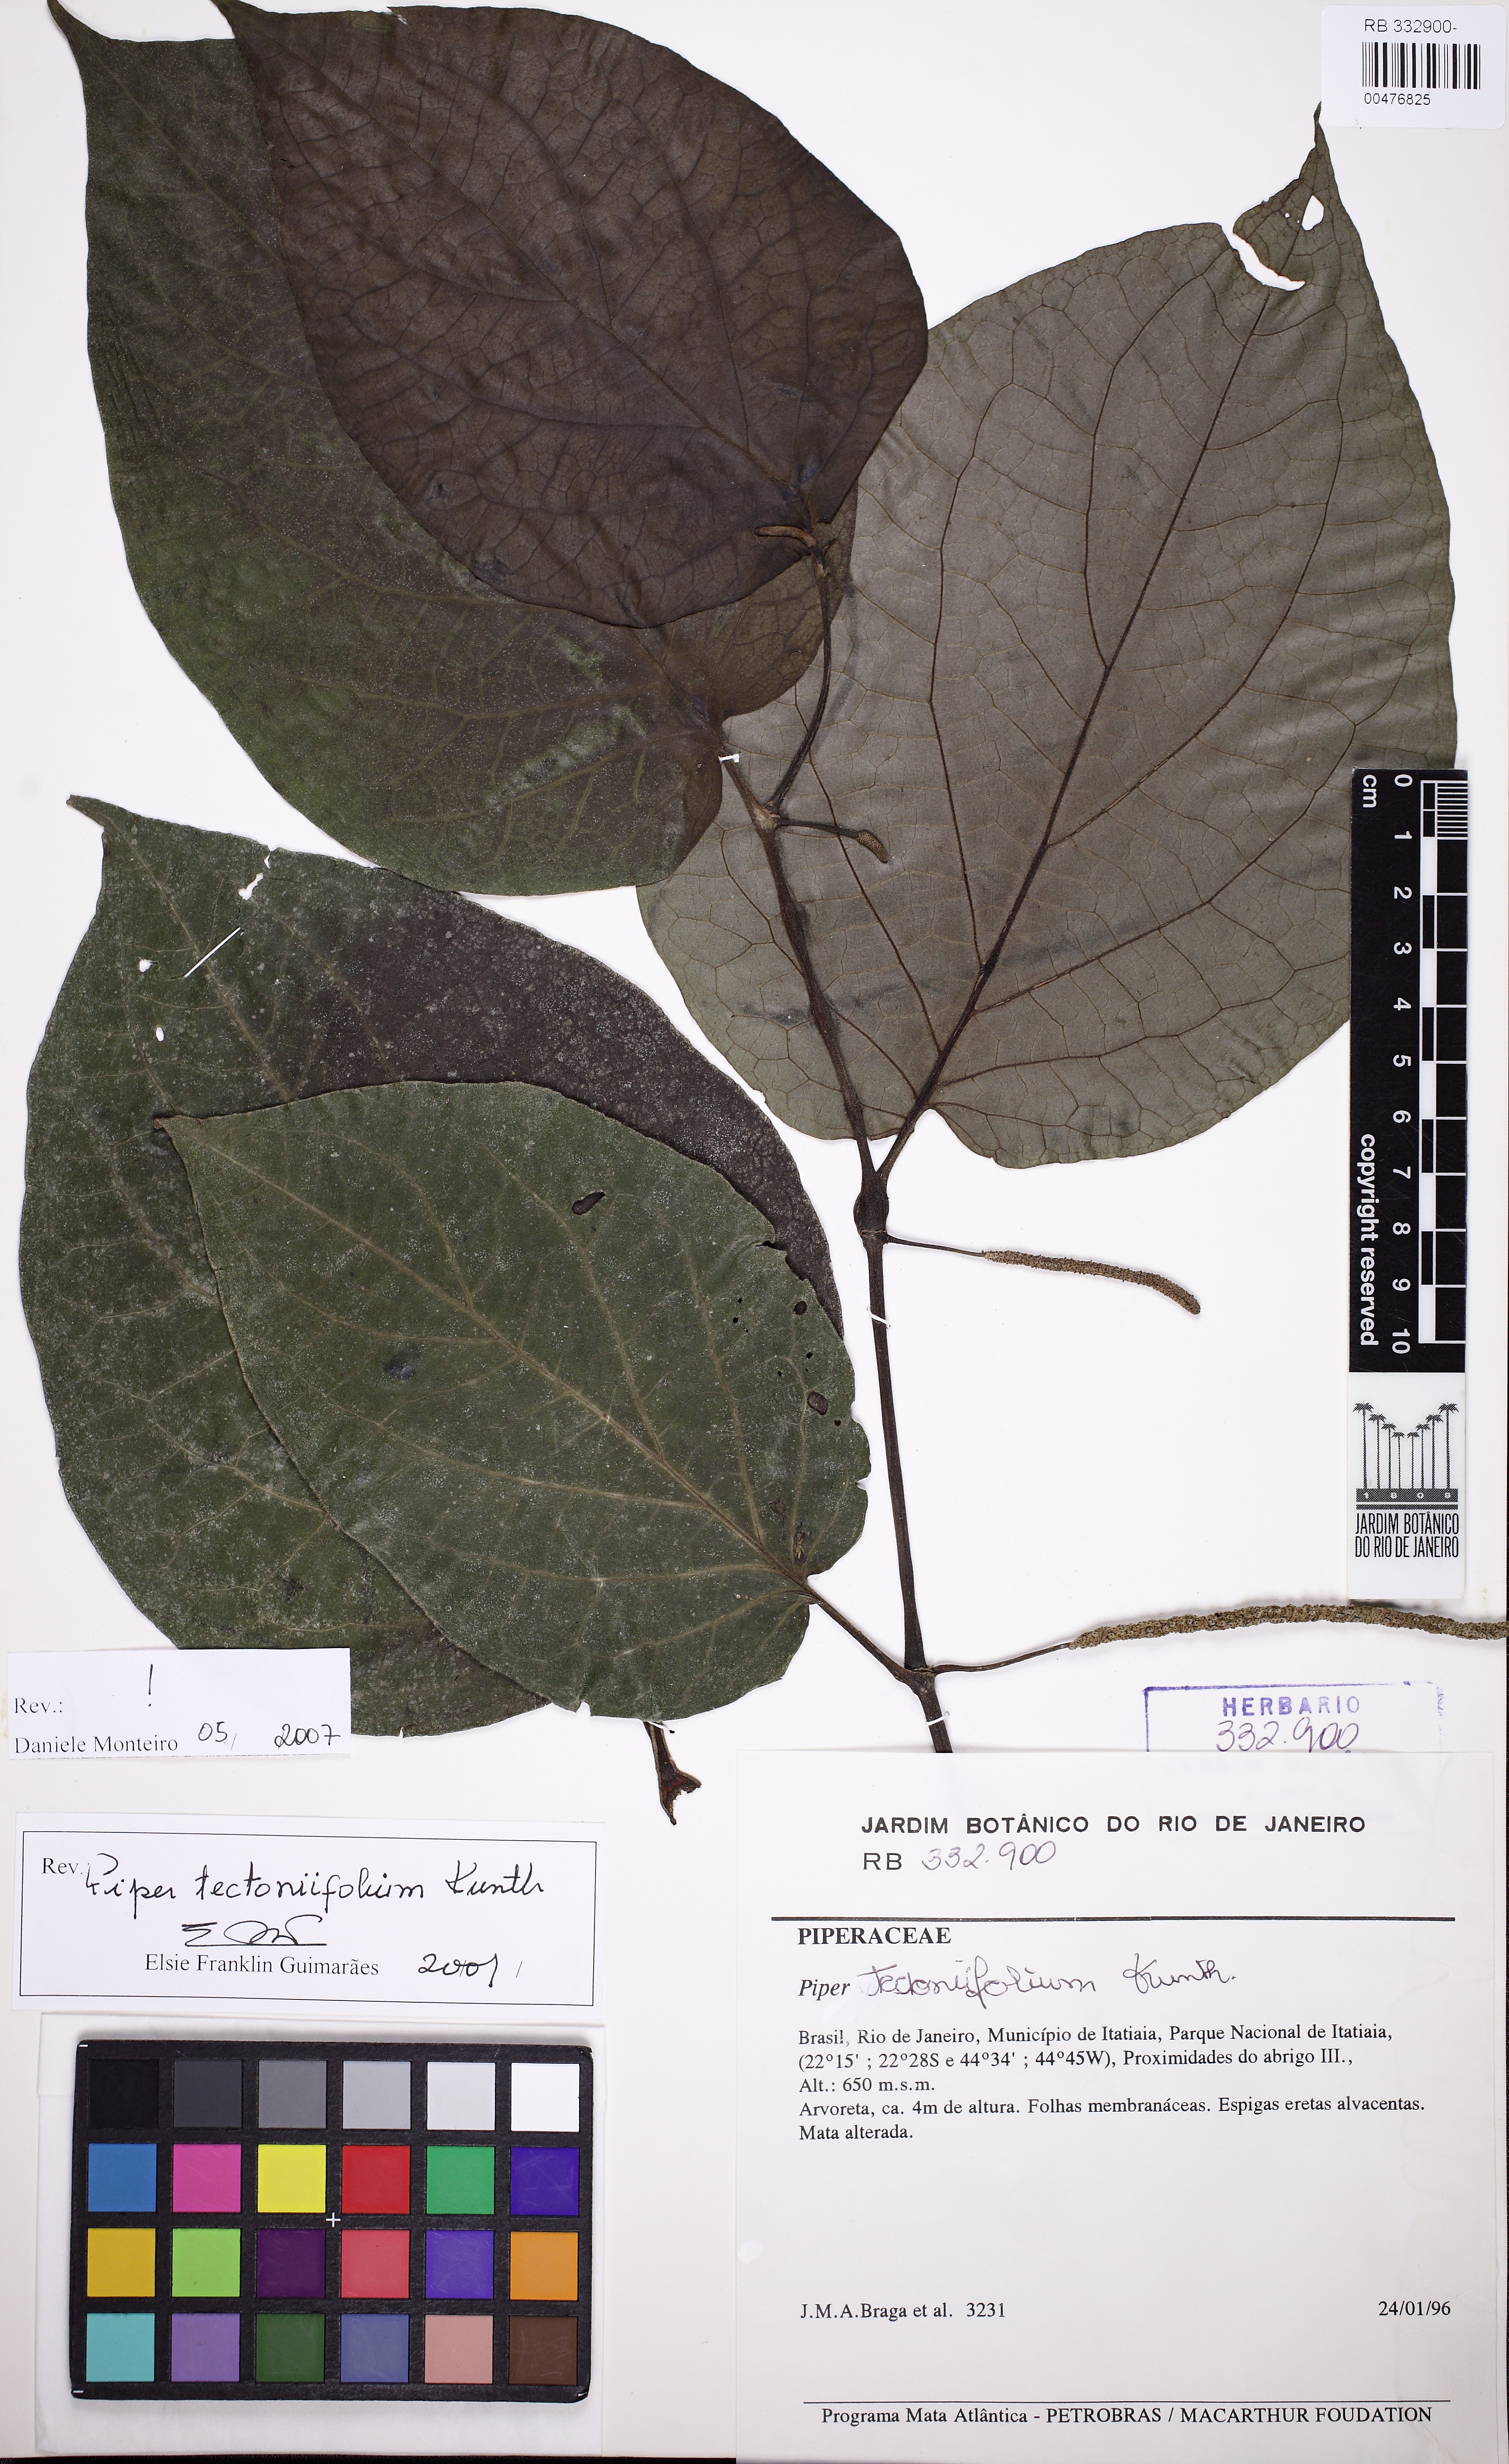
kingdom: Plantae
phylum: Tracheophyta
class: Magnoliopsida
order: Piperales
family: Piperaceae
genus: Piper
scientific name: Piper tectoniifolium
